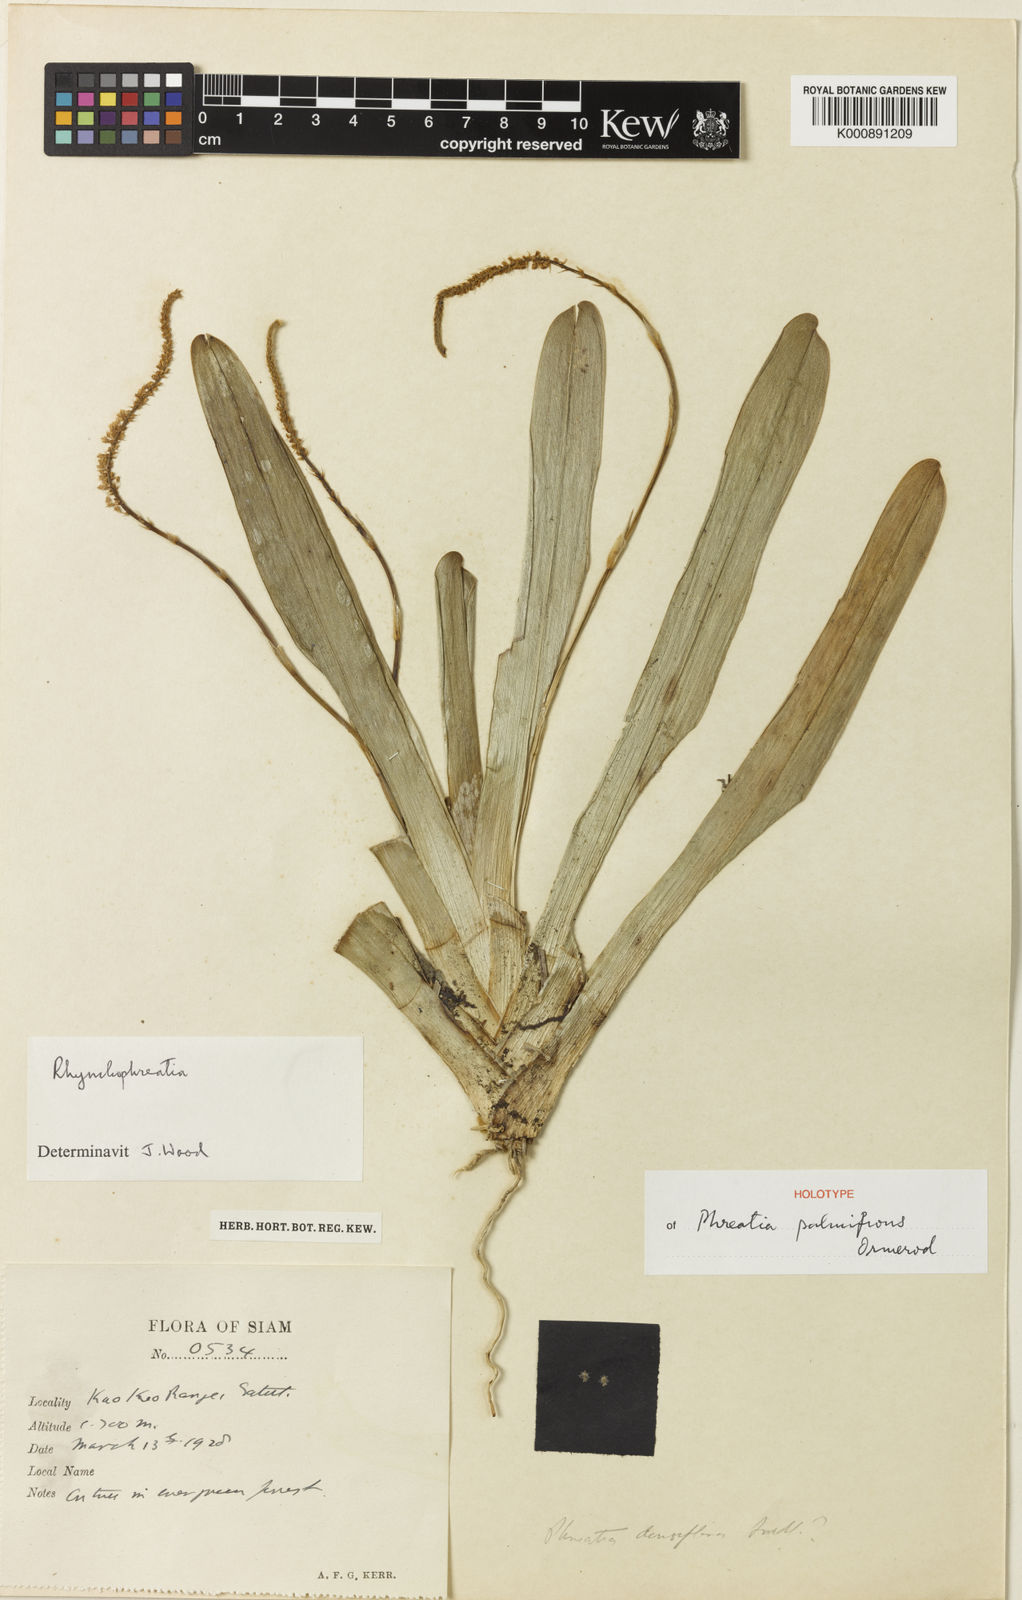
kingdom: Plantae
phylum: Tracheophyta
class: Liliopsida
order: Asparagales
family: Orchidaceae
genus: Phreatia
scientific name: Phreatia palmifrons
